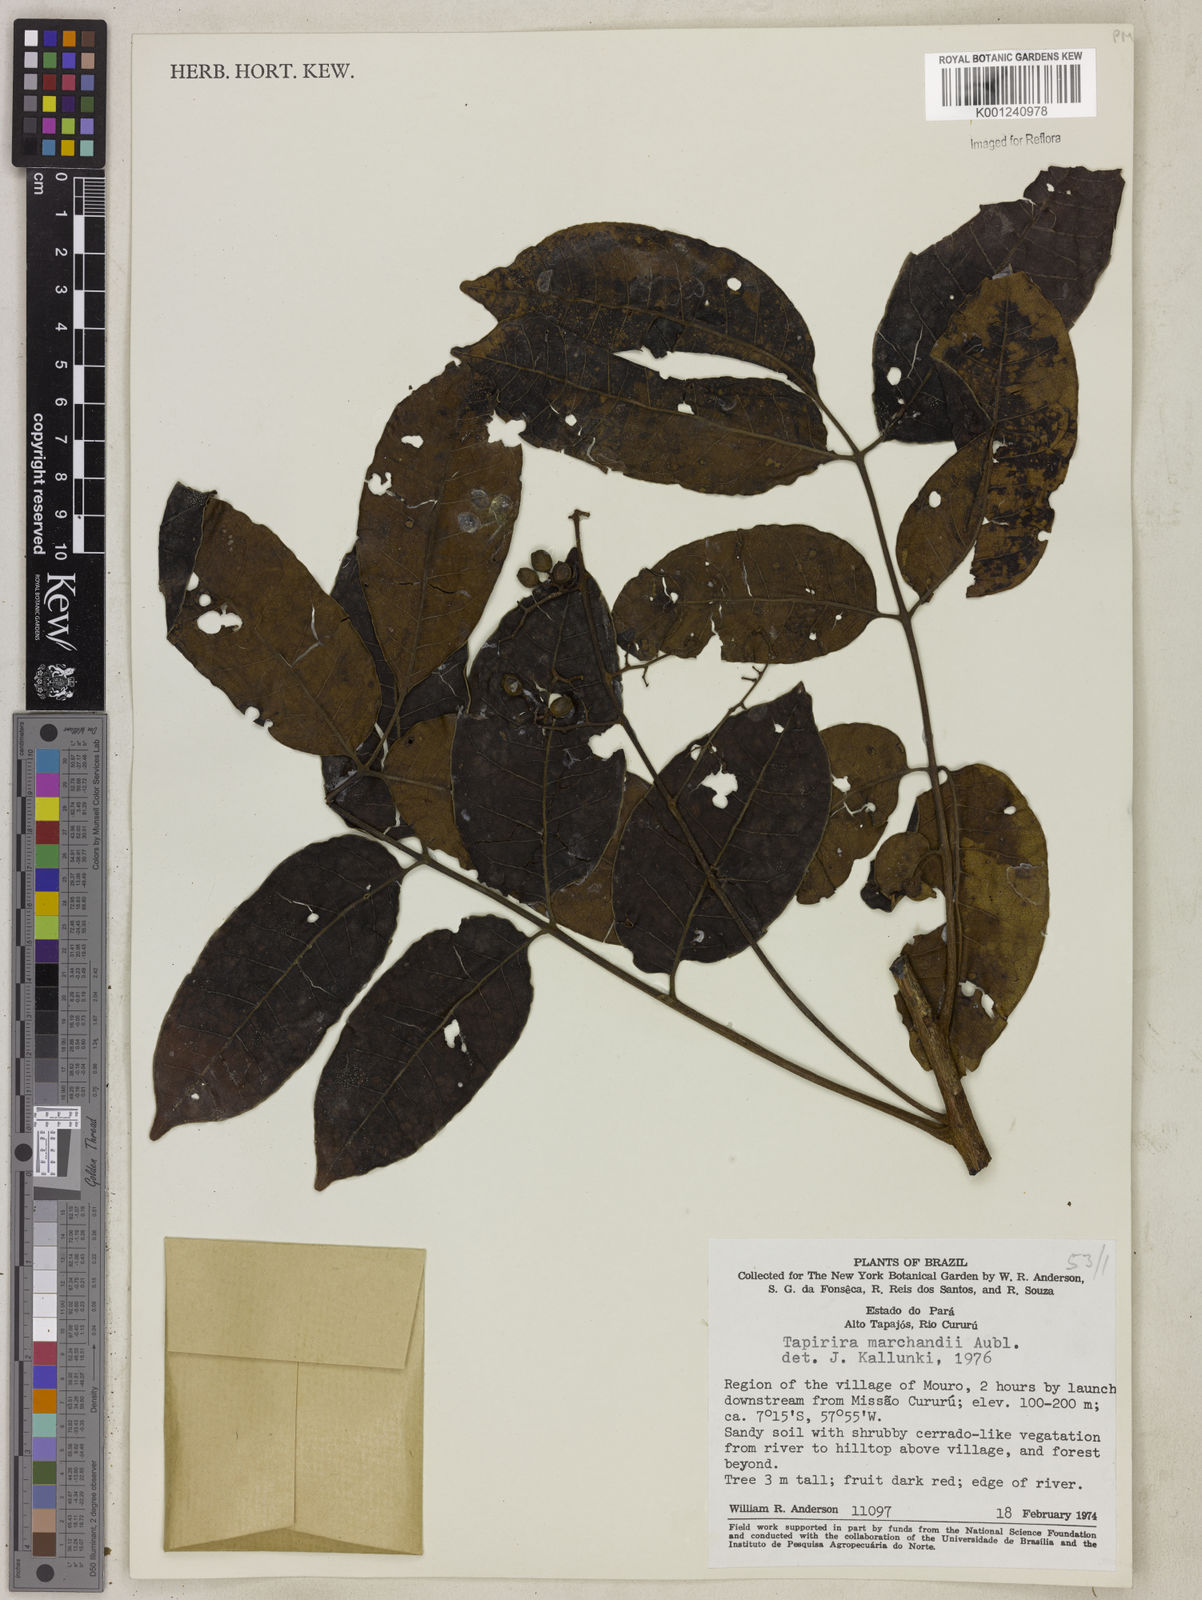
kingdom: Plantae
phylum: Tracheophyta
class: Magnoliopsida
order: Sapindales
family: Anacardiaceae
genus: Tapirira
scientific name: Tapirira guianensis
